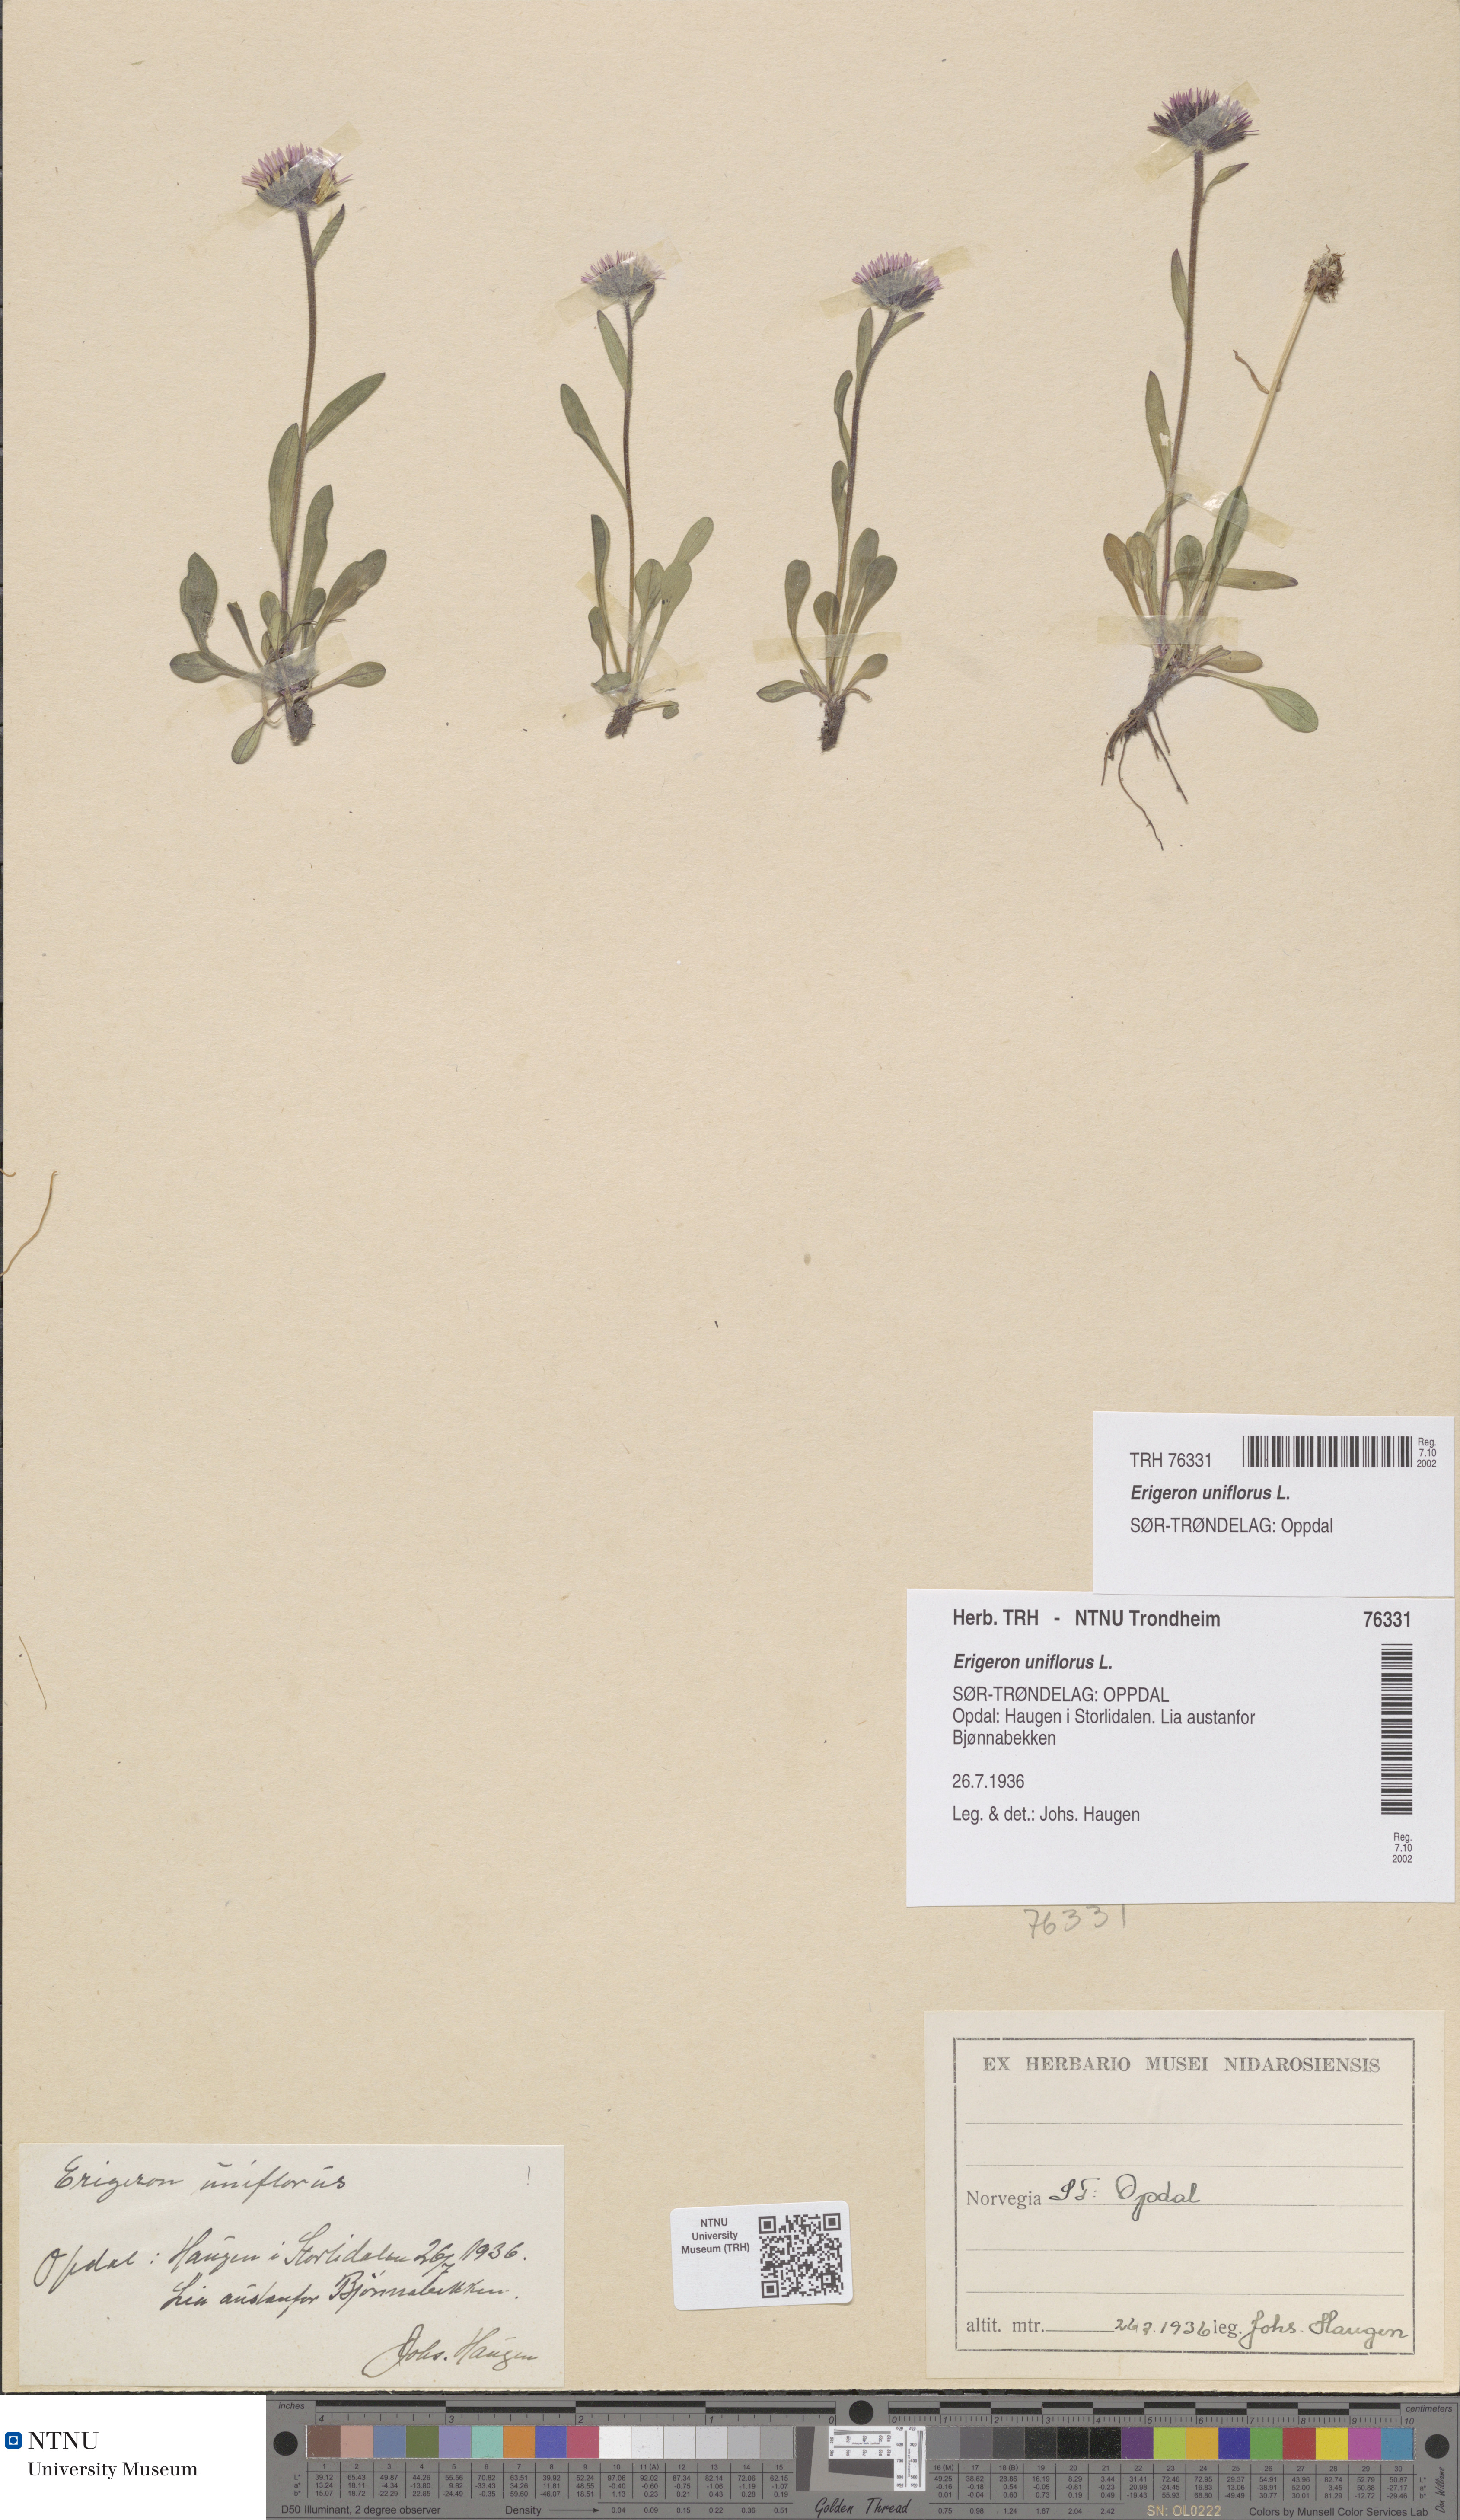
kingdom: Plantae
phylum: Tracheophyta
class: Magnoliopsida
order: Asterales
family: Asteraceae
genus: Erigeron
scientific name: Erigeron uniflorus
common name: Northern daisy
